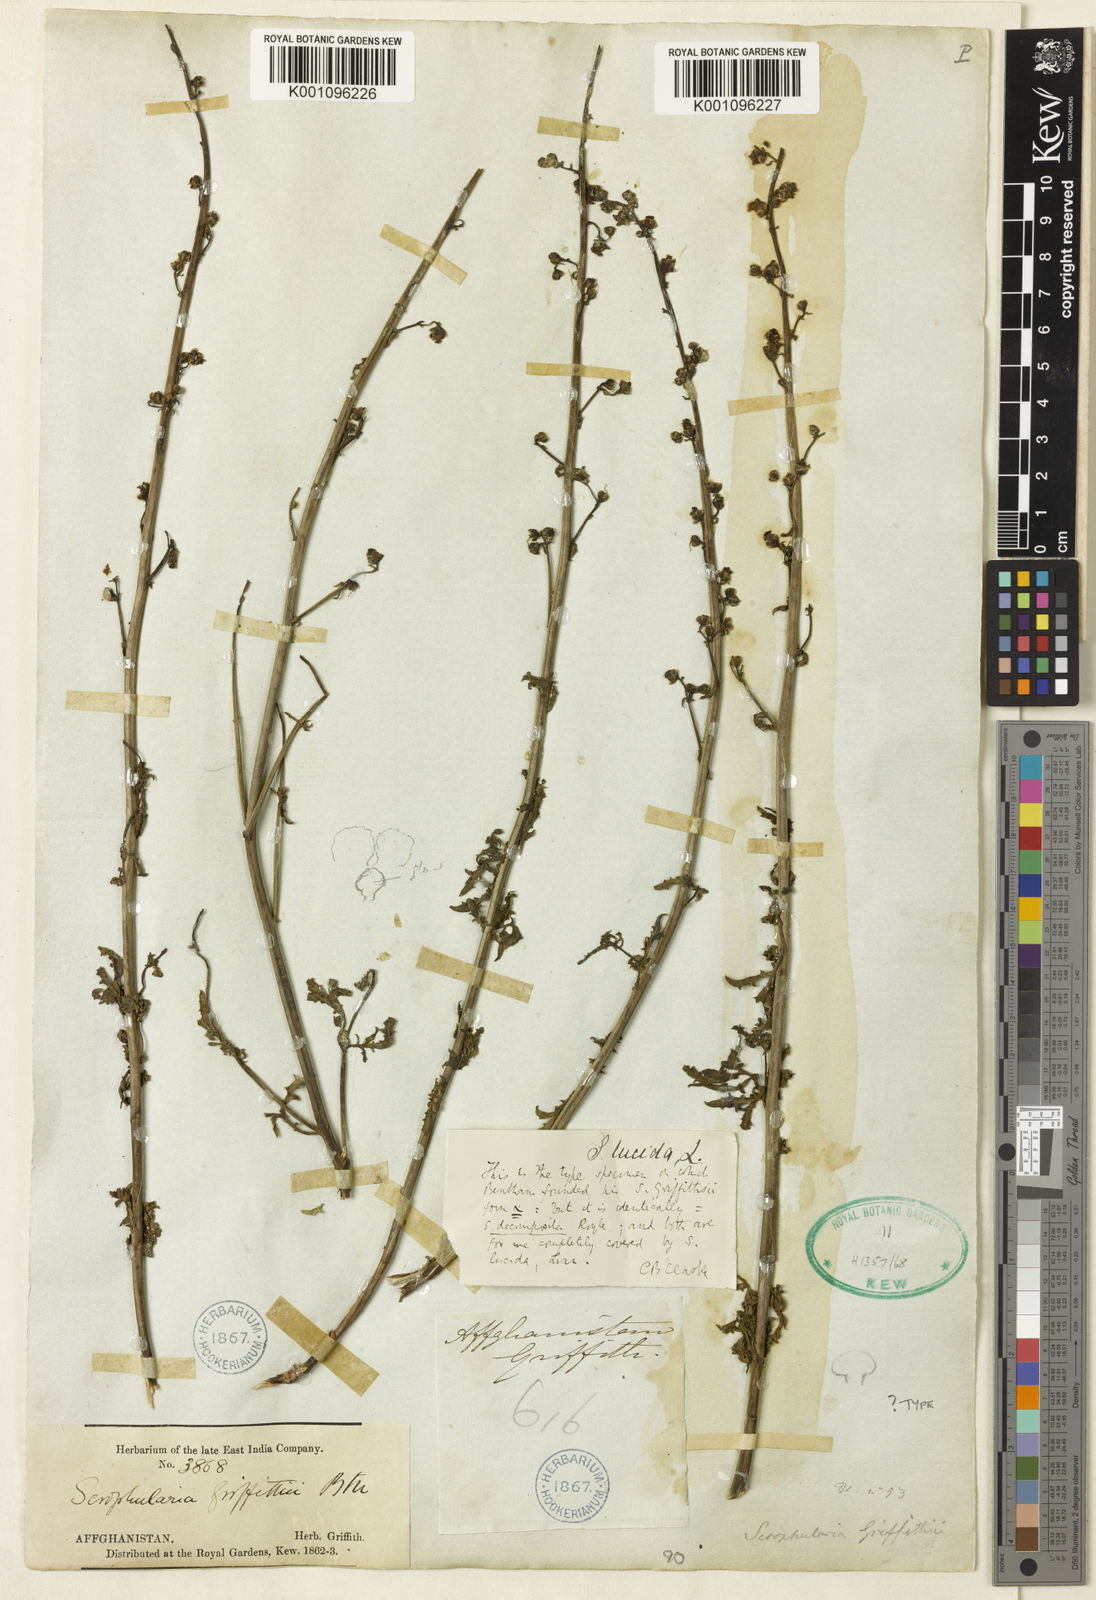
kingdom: Plantae
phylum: Tracheophyta
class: Magnoliopsida
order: Lamiales
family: Scrophulariaceae
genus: Scrophularia
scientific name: Scrophularia griffithii
